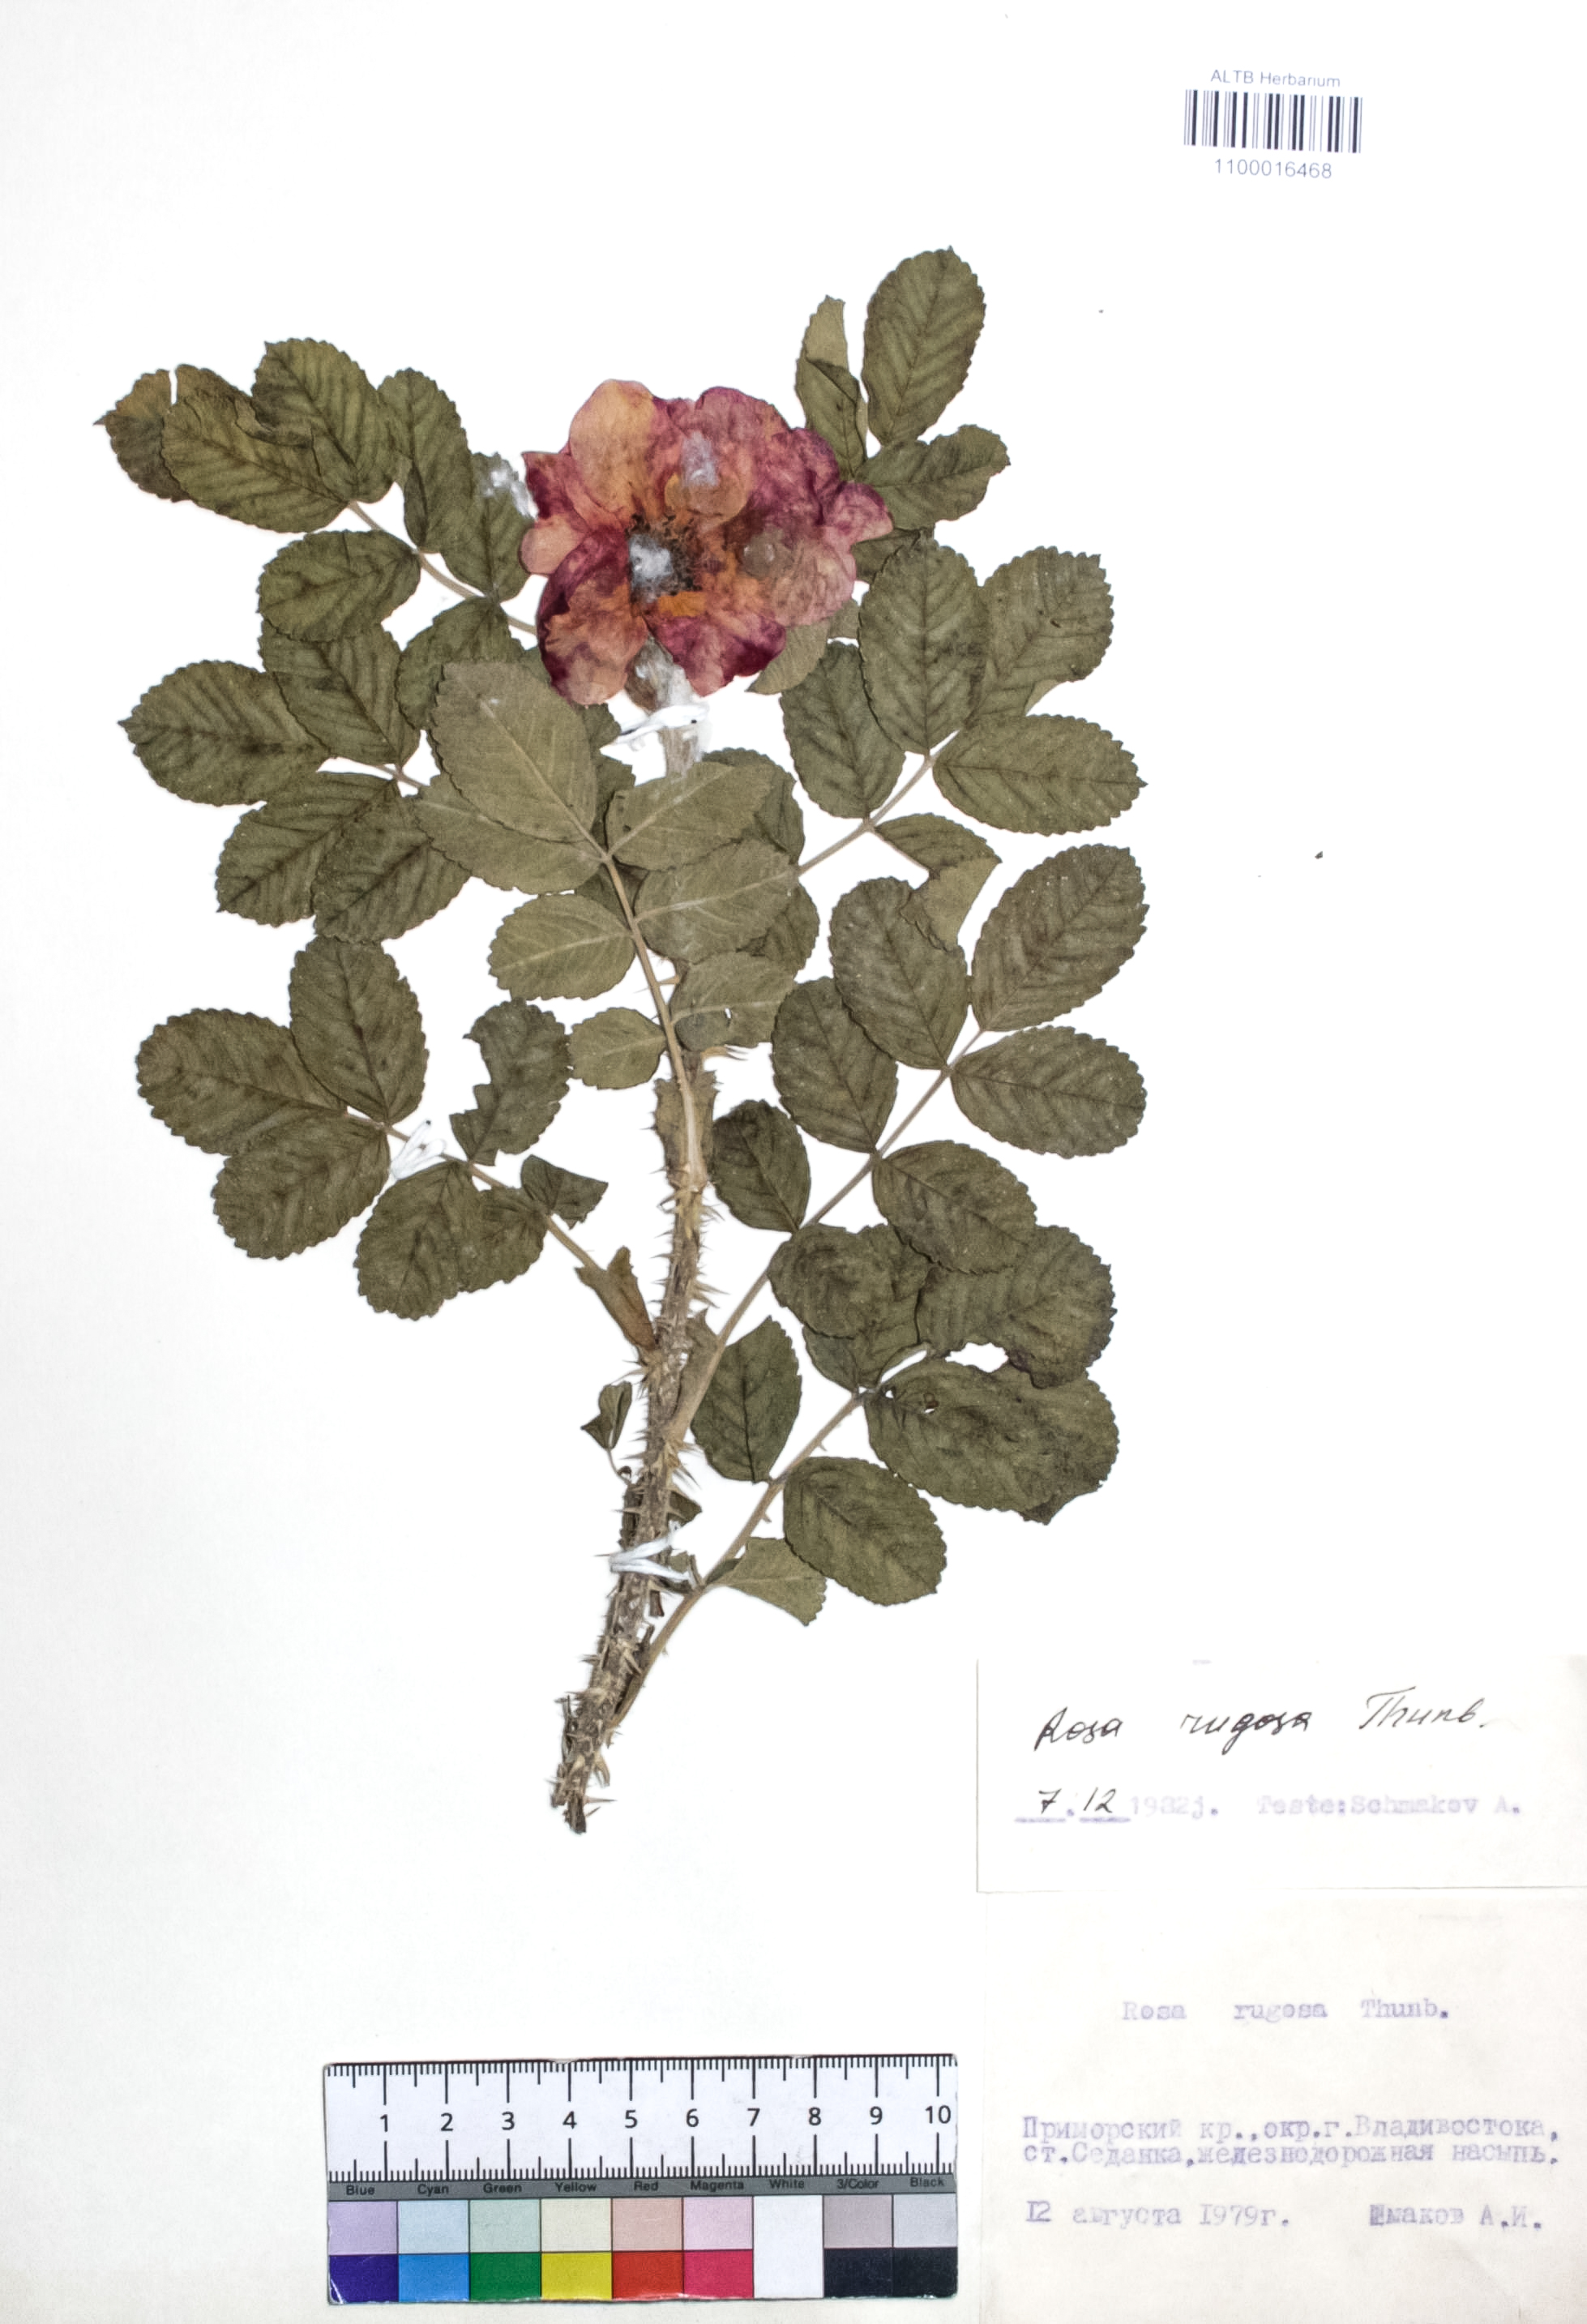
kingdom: Plantae
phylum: Tracheophyta
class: Magnoliopsida
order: Rosales
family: Rosaceae
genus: Rosa
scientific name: Rosa rugosa
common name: Japanese rose
